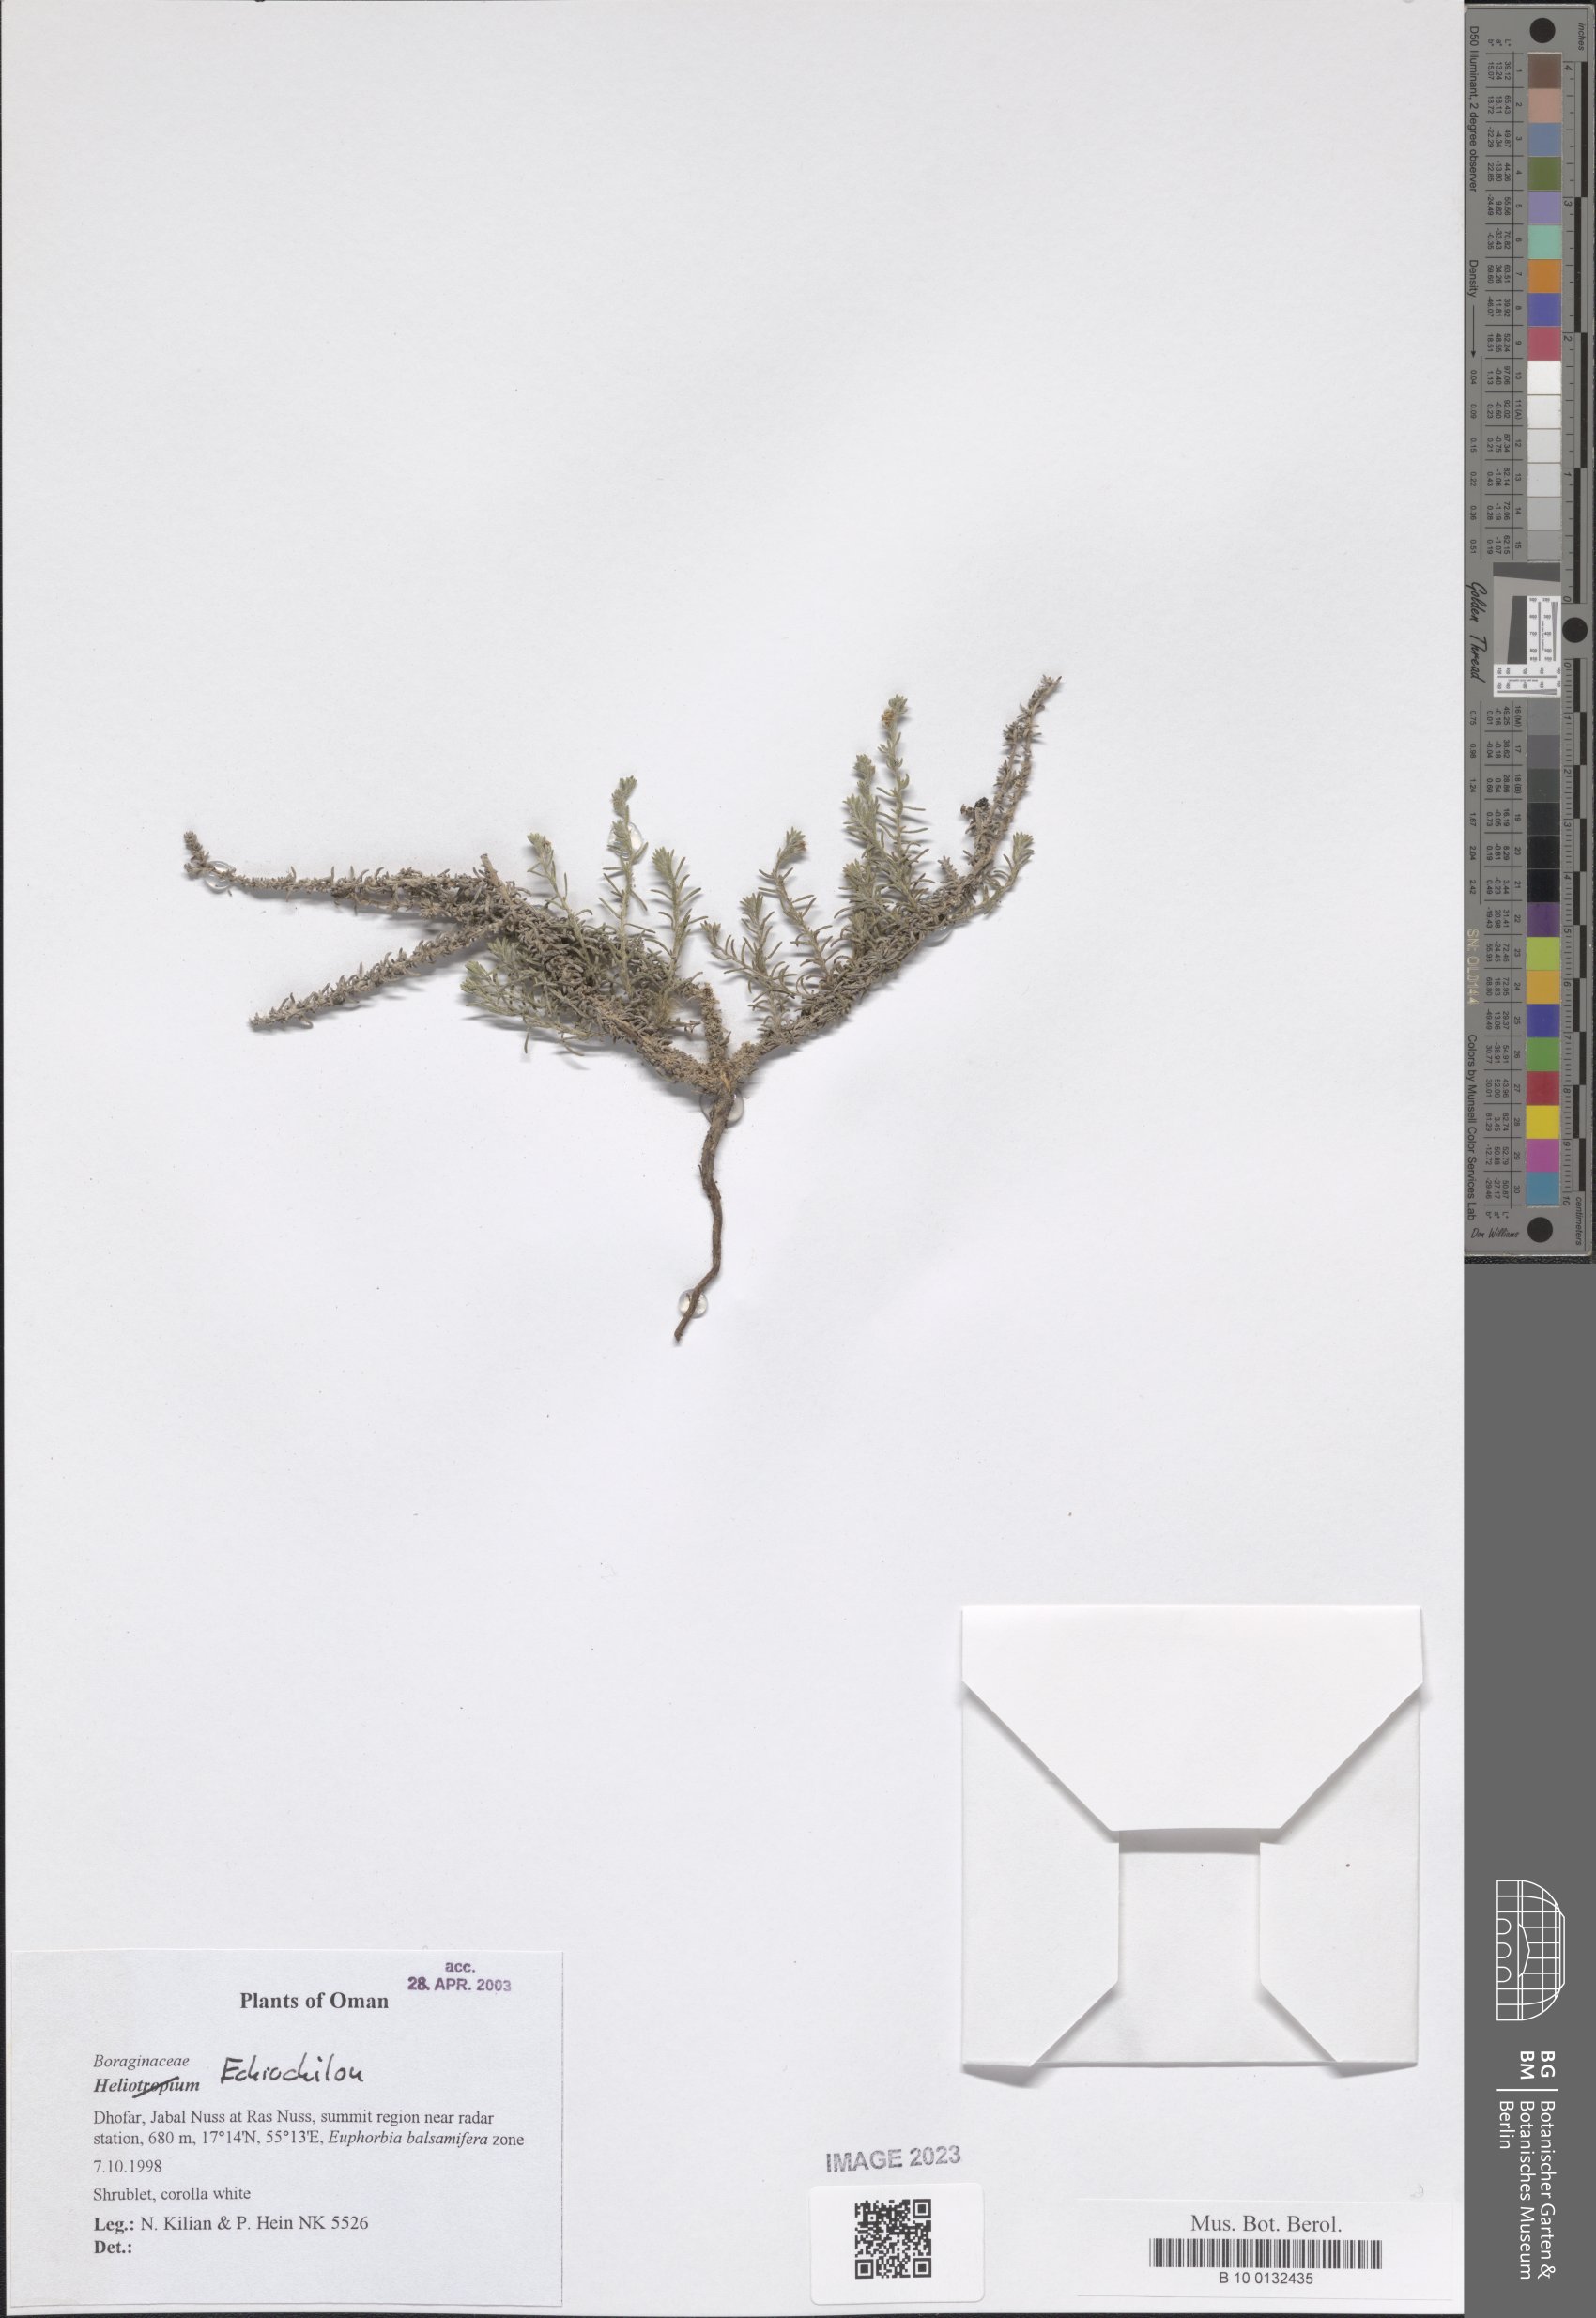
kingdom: Plantae
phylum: Tracheophyta
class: Magnoliopsida
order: Boraginales
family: Heliotropiaceae
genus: Heliotropium
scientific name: Heliotropium
